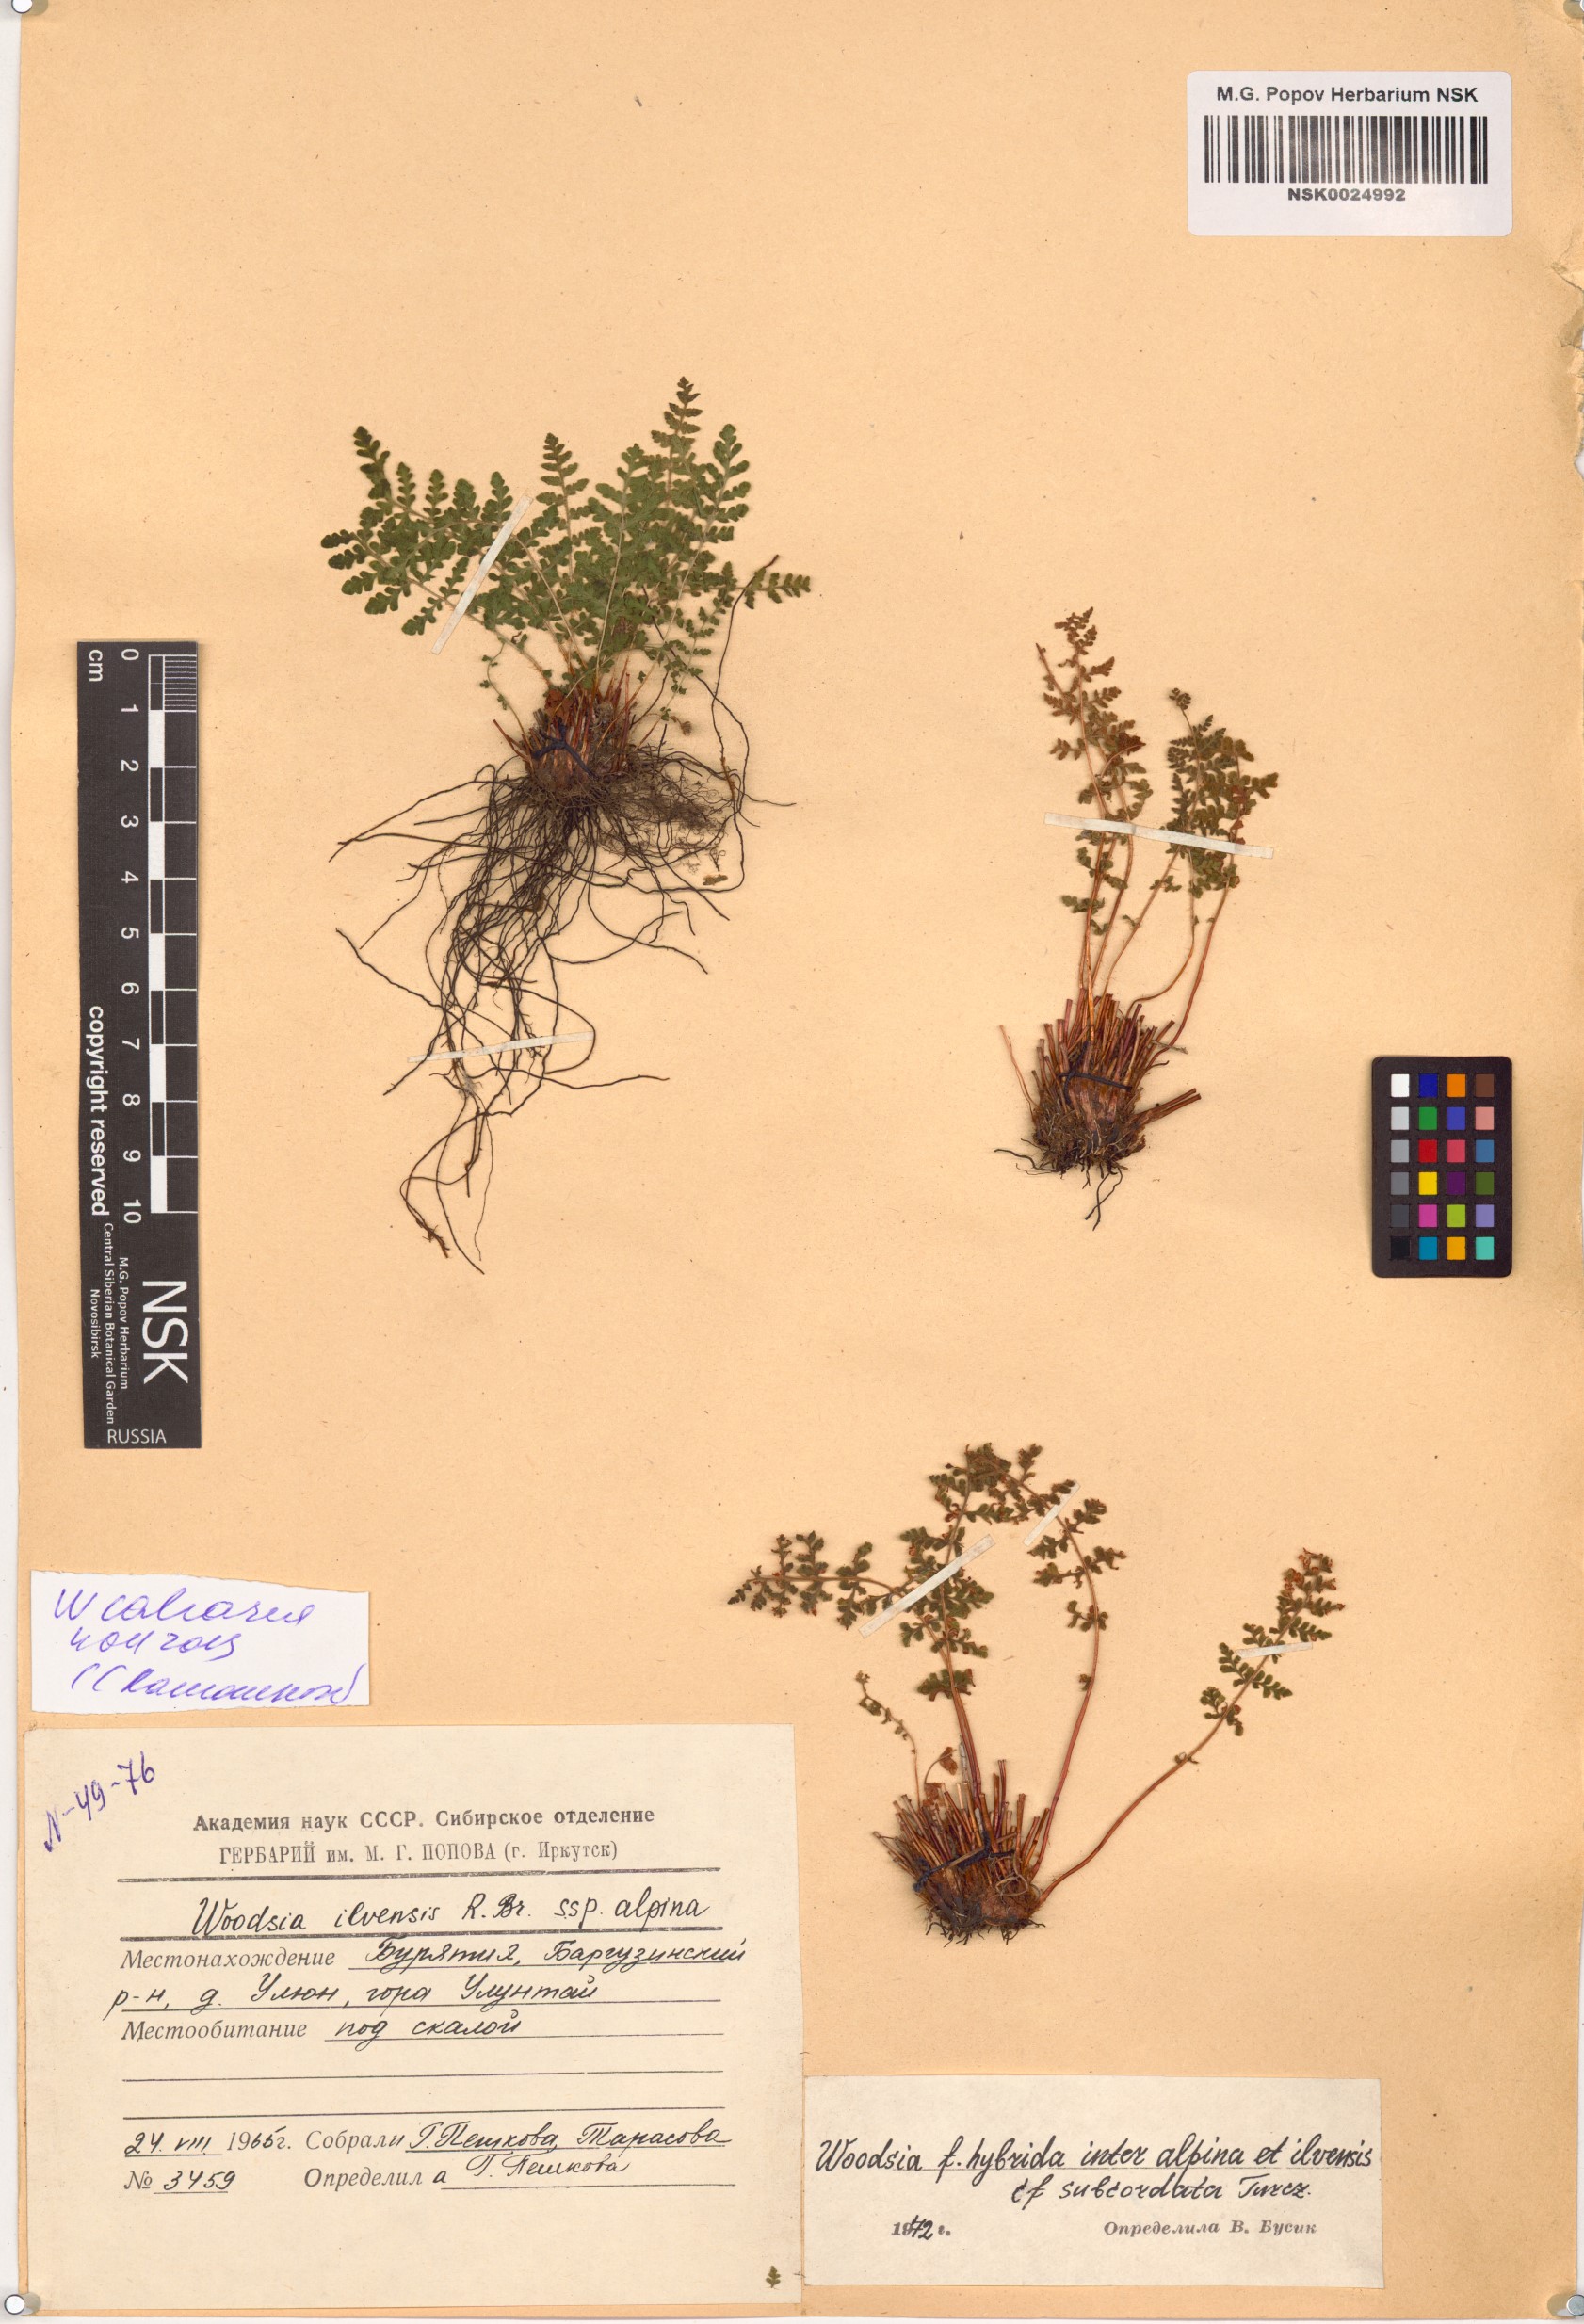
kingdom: Plantae
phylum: Tracheophyta
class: Polypodiopsida
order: Polypodiales
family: Woodsiaceae
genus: Woodsia
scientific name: Woodsia calcarea
